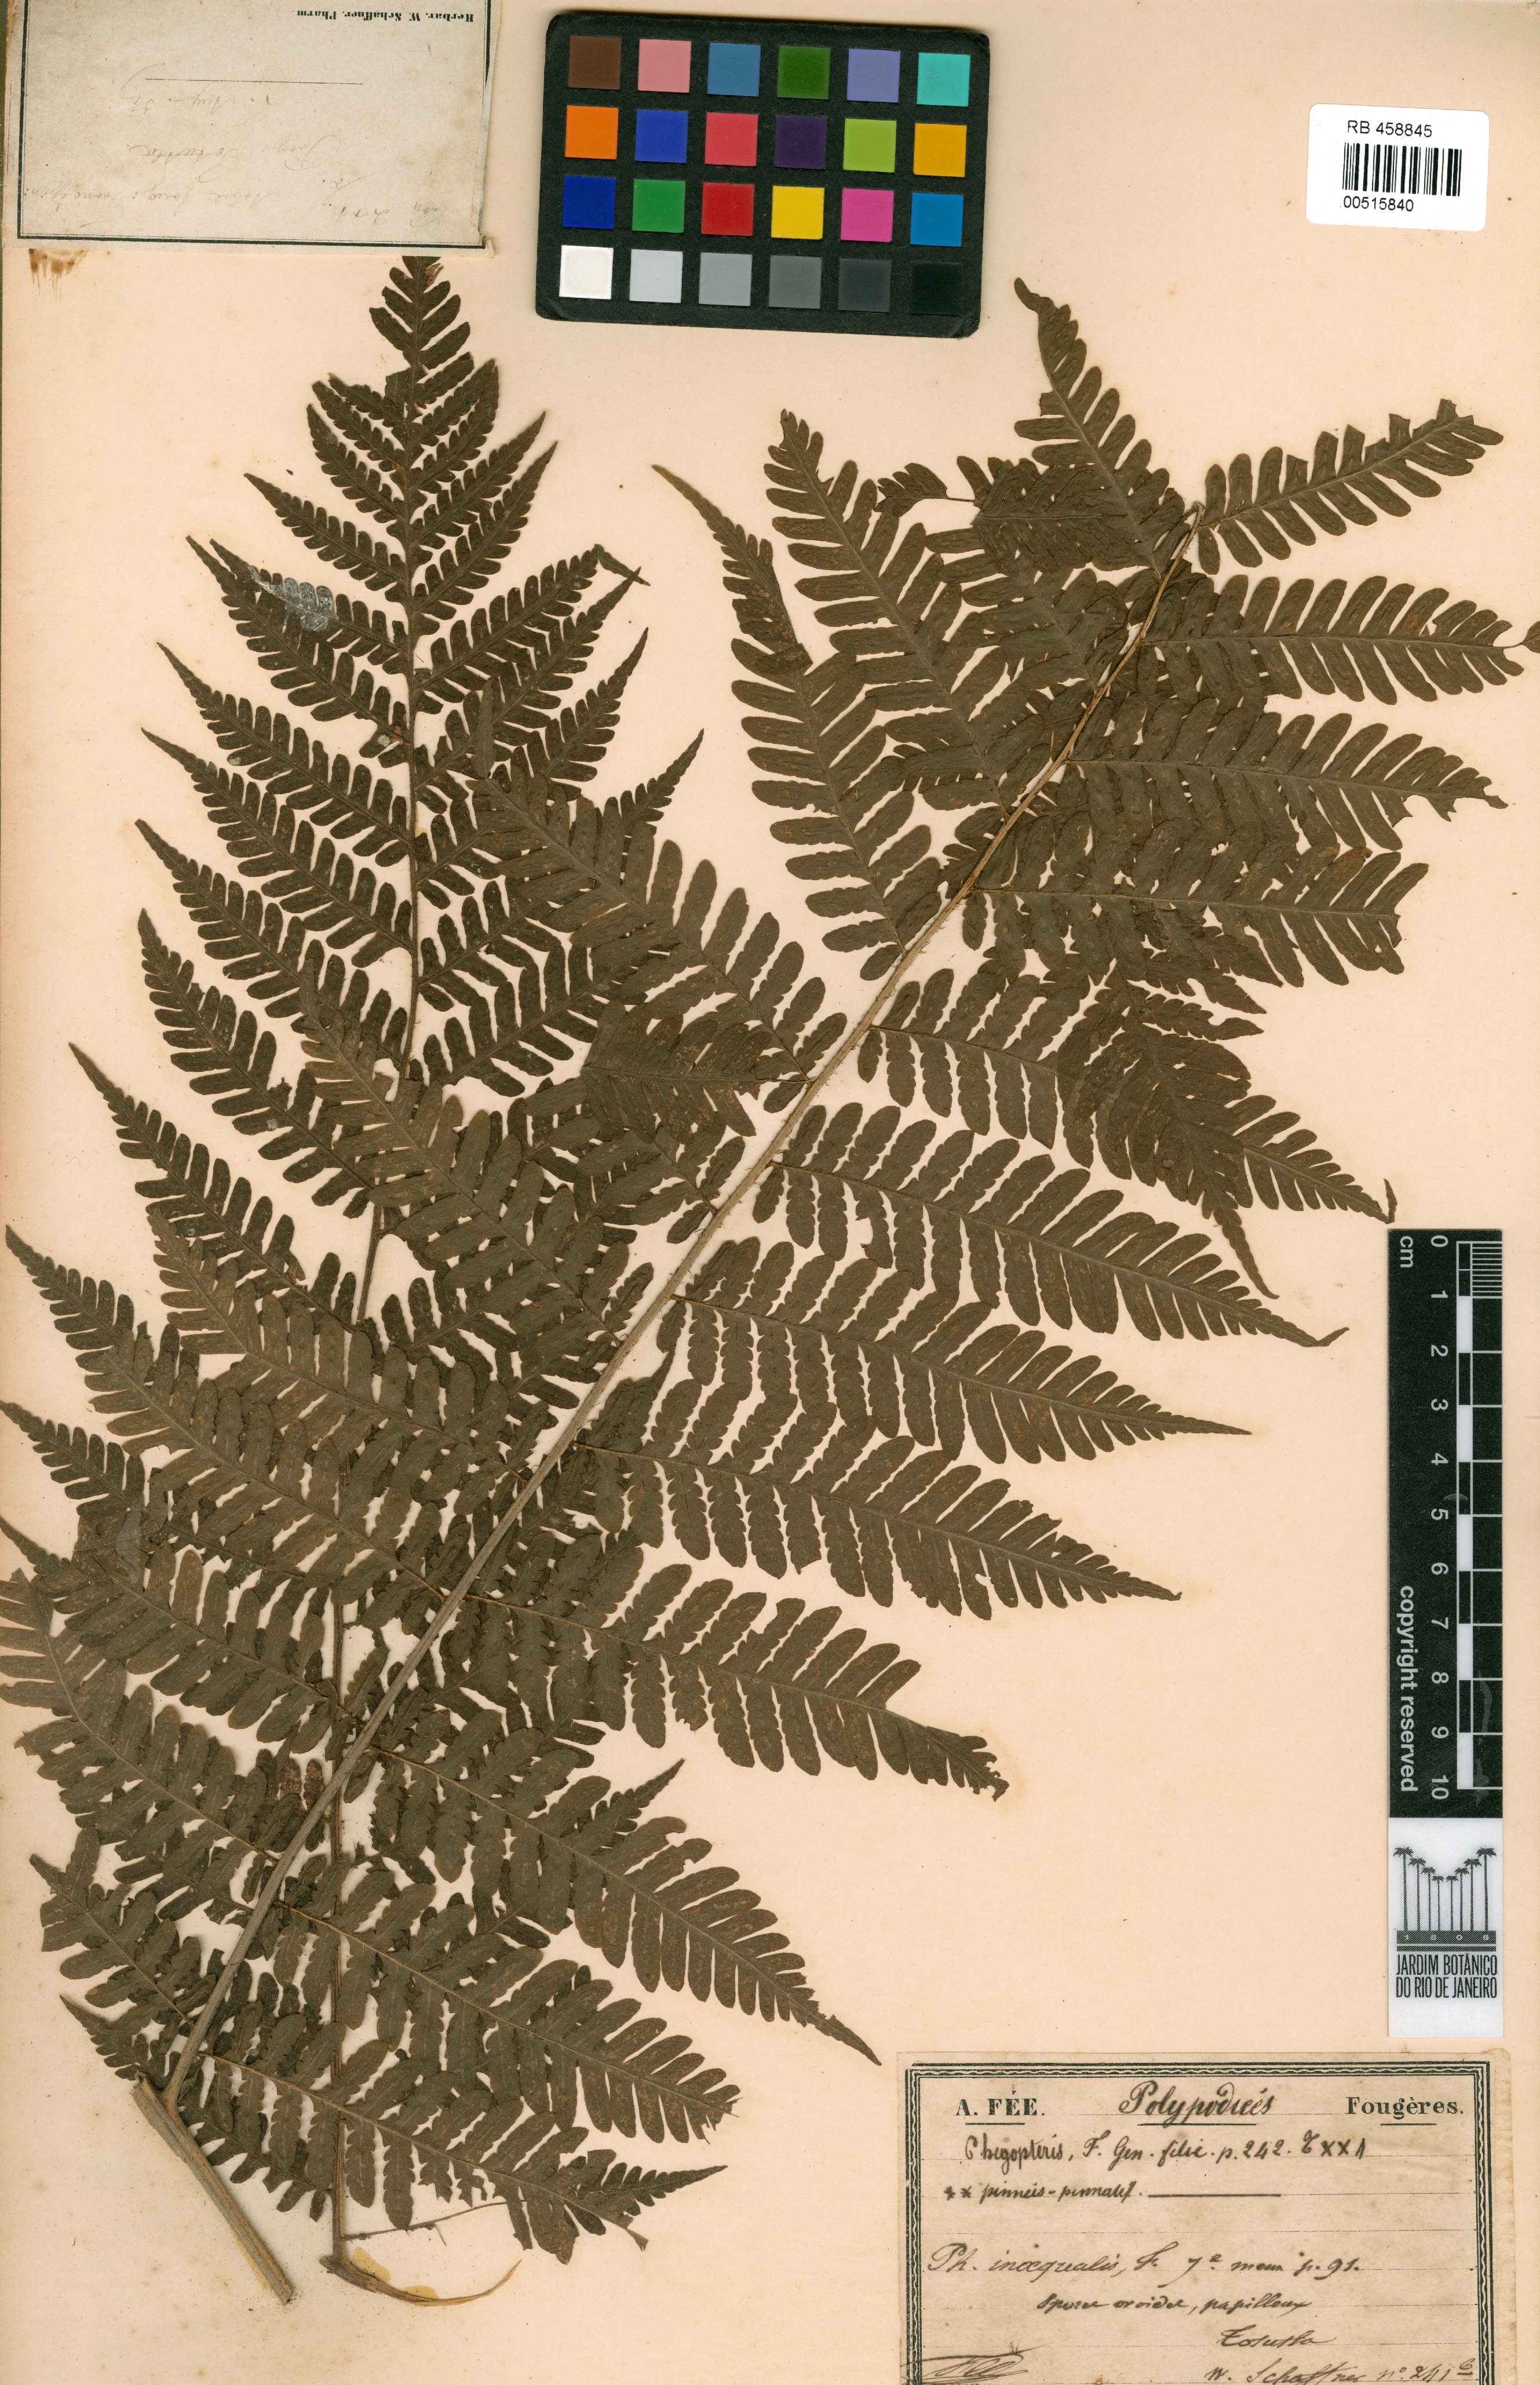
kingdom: Plantae
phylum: Tracheophyta
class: Polypodiopsida
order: Polypodiales
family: Dryopteridaceae
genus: Ctenitis
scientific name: Ctenitis excelsa
